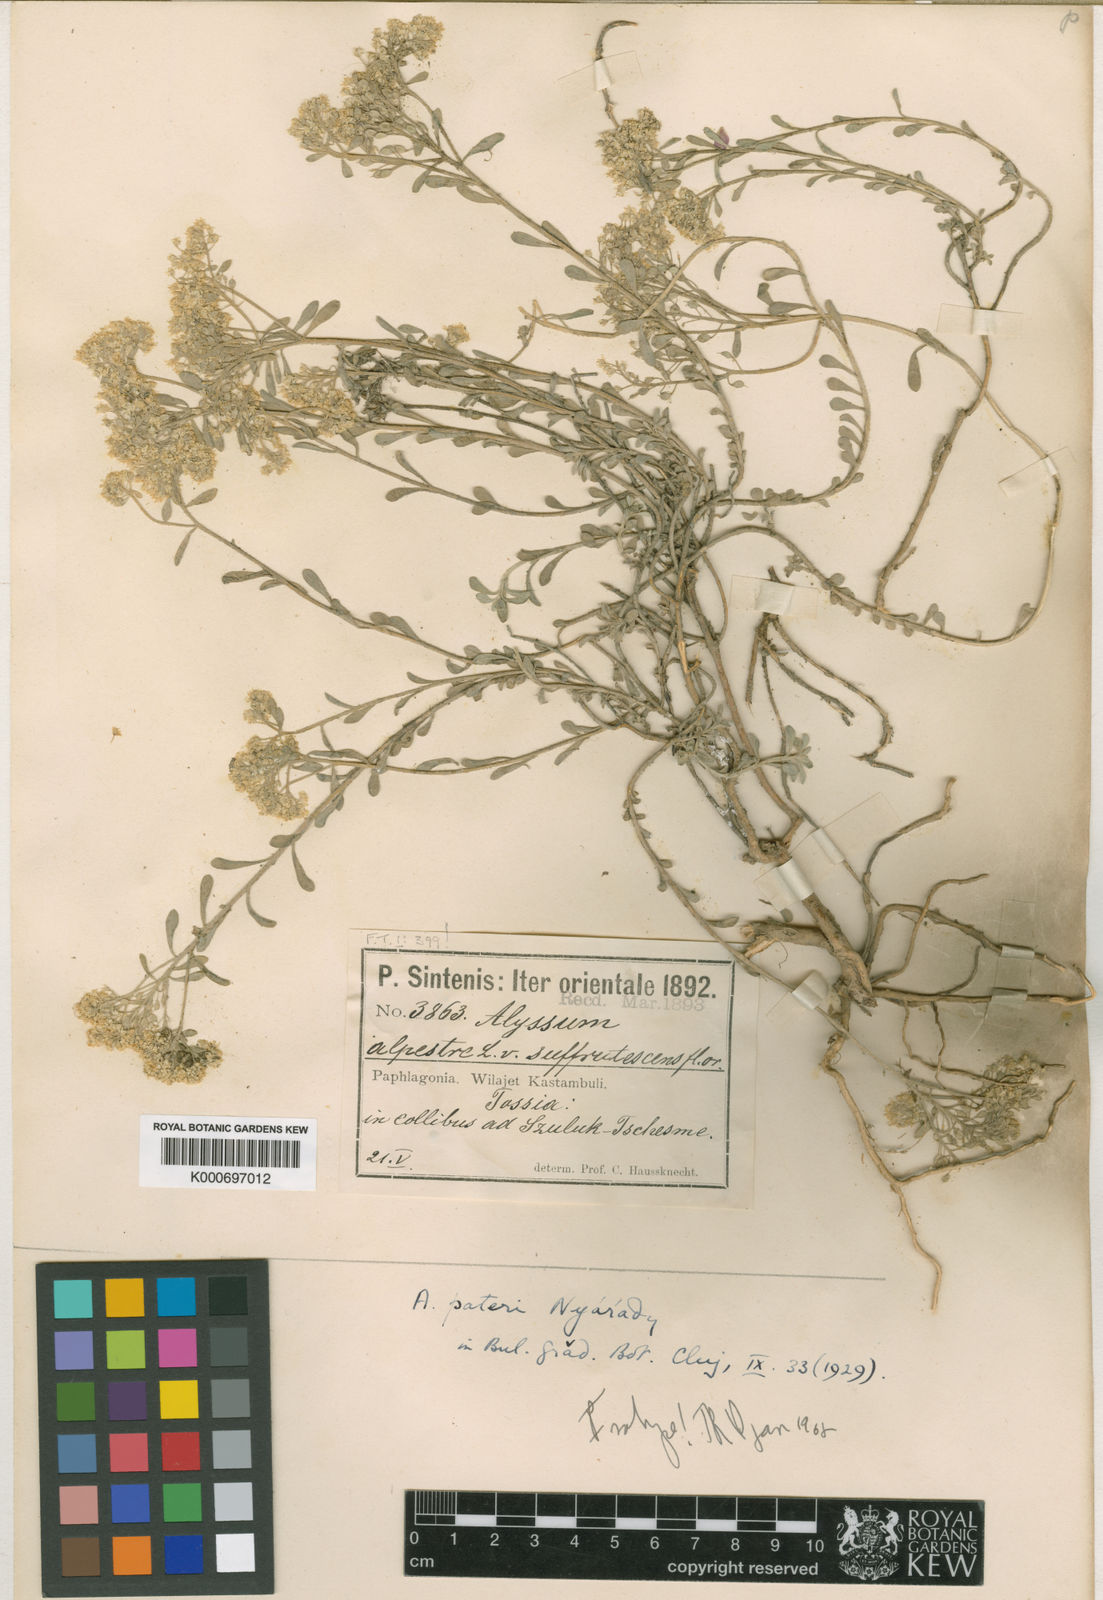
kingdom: Plantae
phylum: Tracheophyta
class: Magnoliopsida
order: Brassicales
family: Brassicaceae
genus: Odontarrhena
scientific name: Odontarrhena pateri
